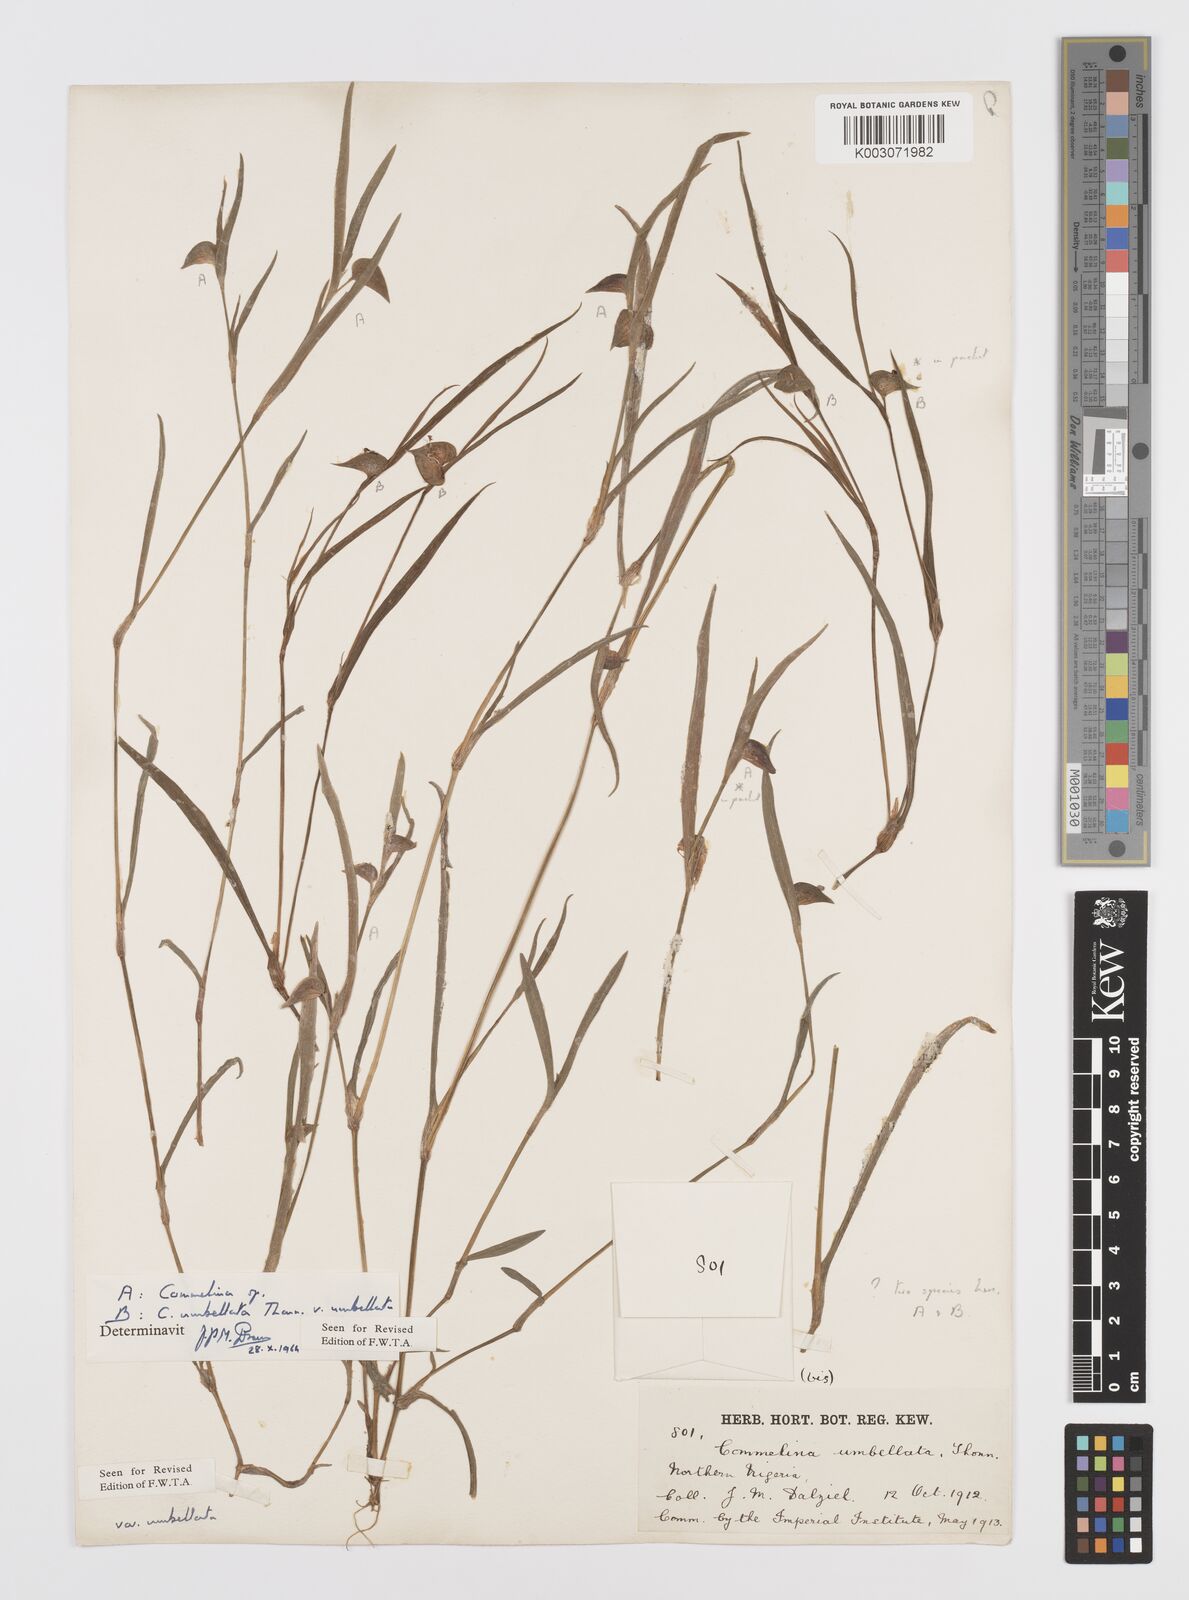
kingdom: Plantae
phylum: Tracheophyta
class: Liliopsida
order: Commelinales
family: Commelinaceae
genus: Commelina
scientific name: Commelina
